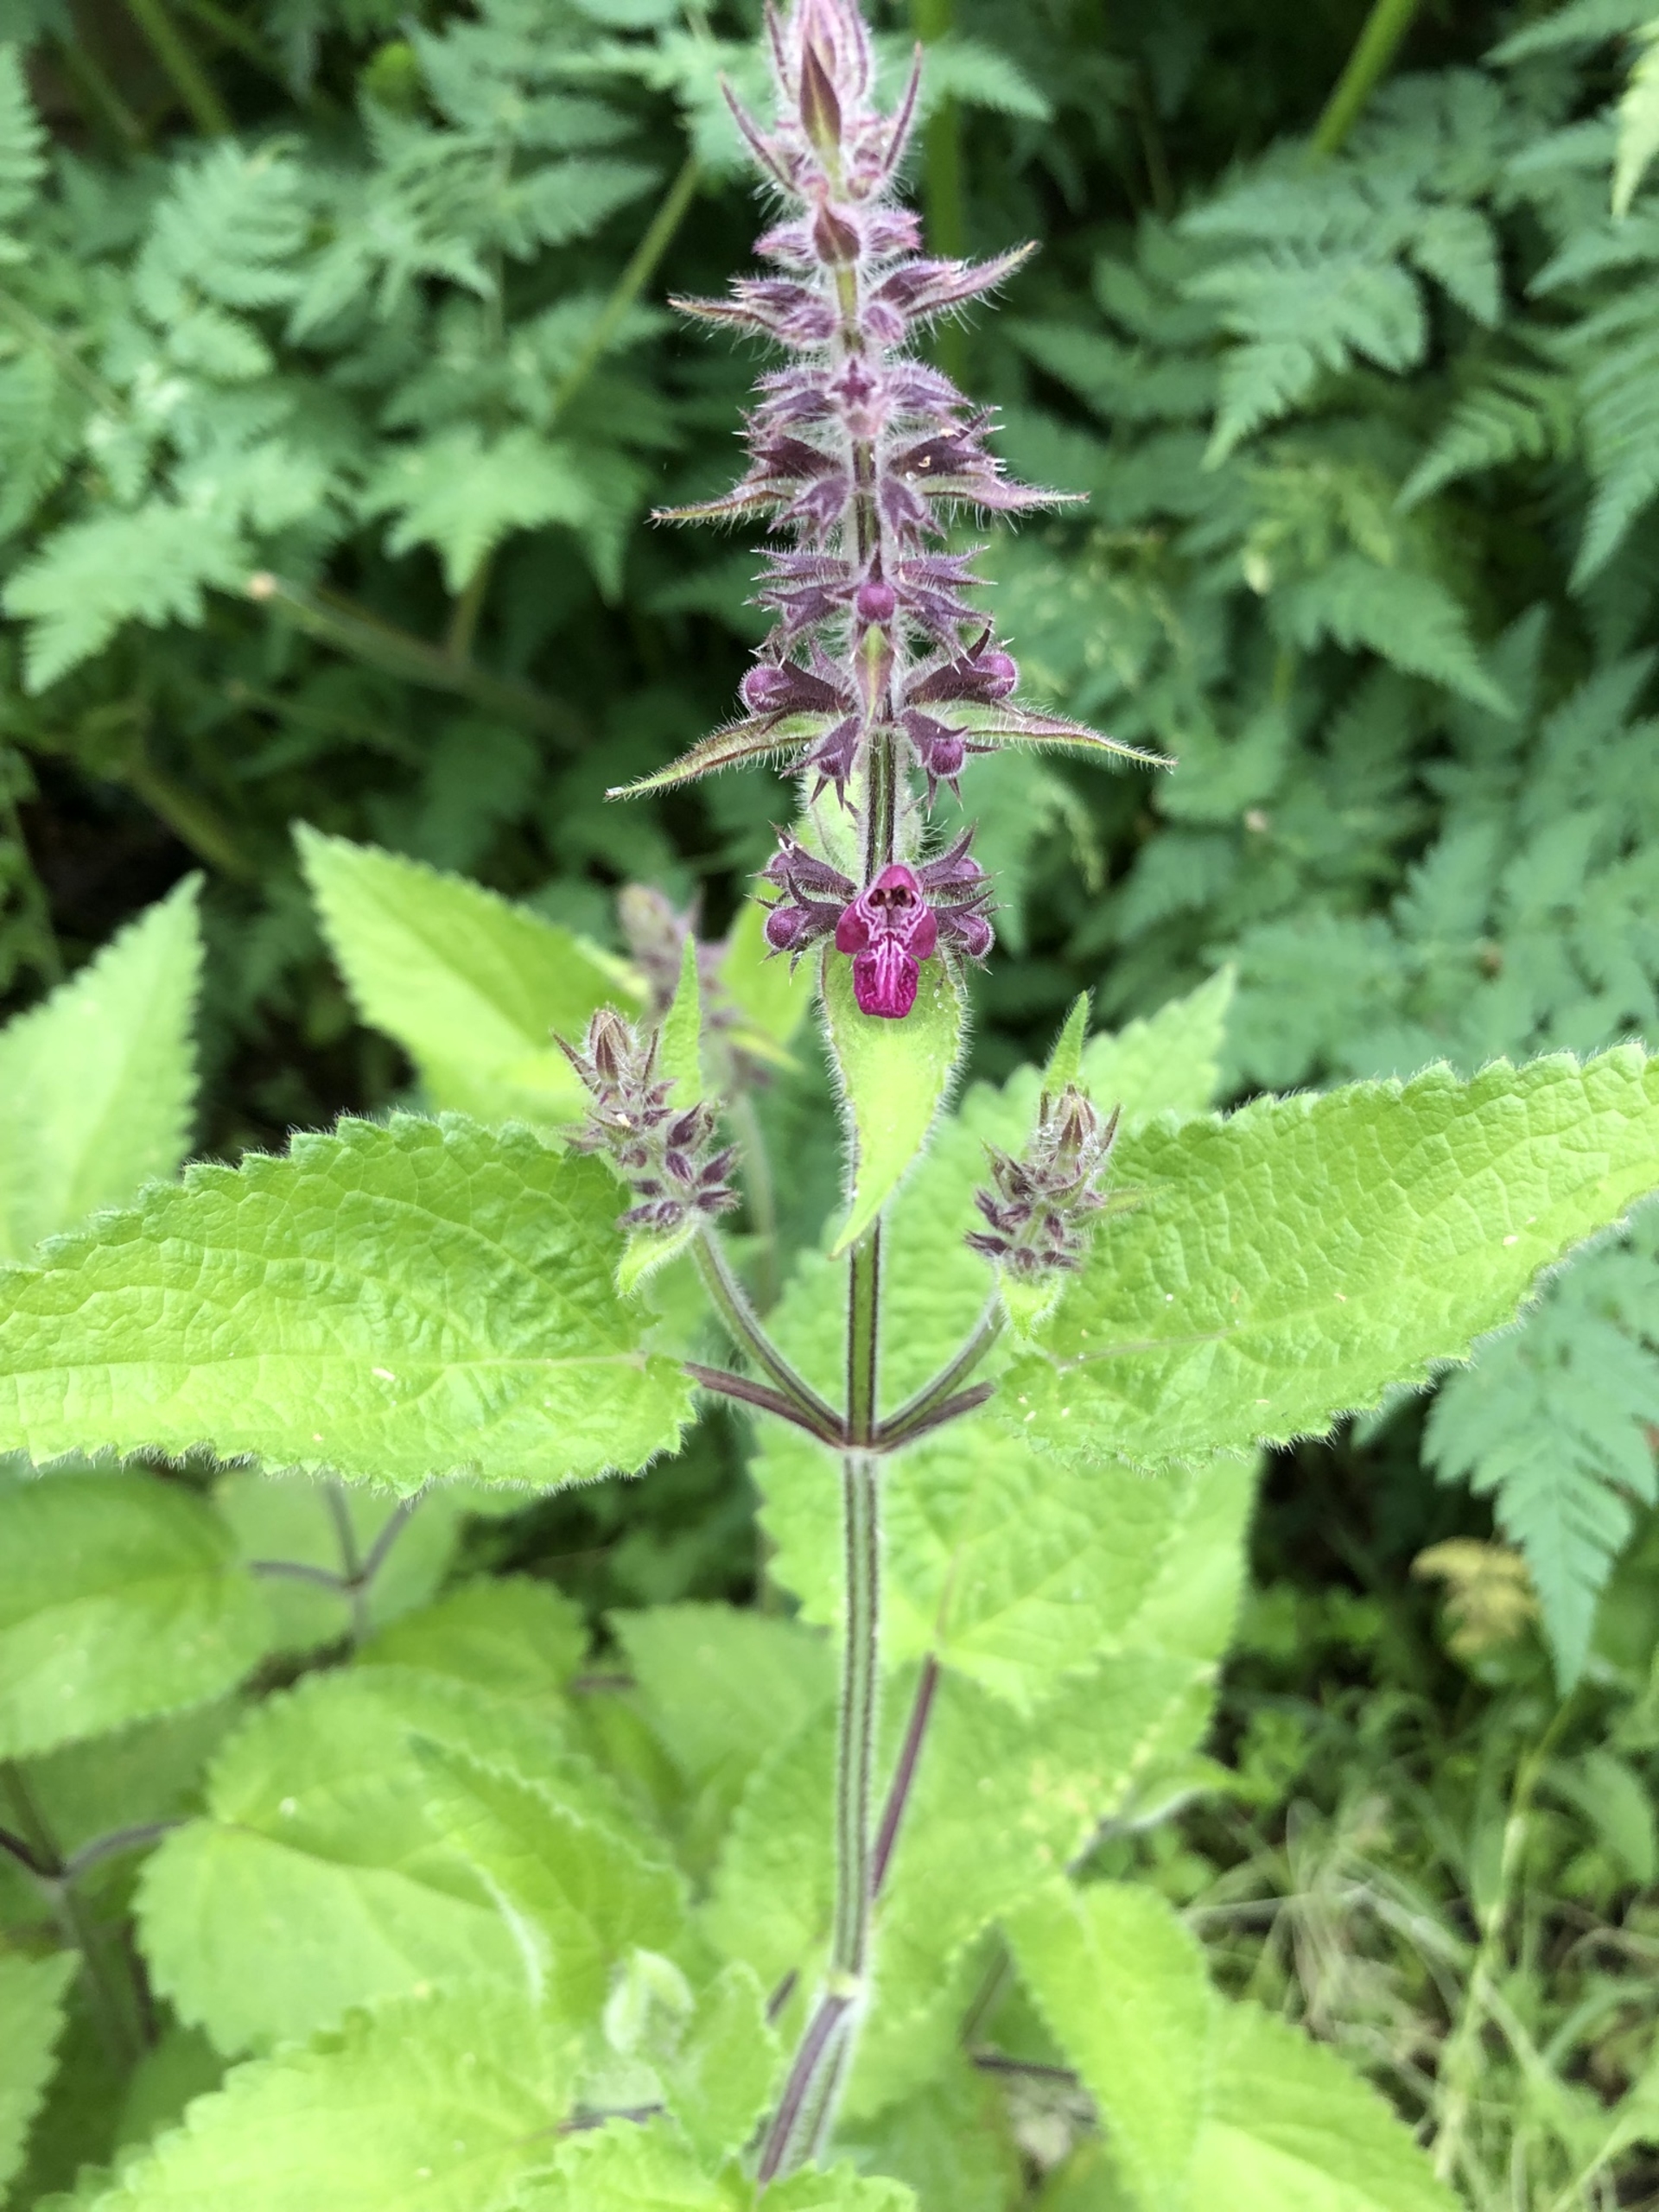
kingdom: Plantae
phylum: Tracheophyta
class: Magnoliopsida
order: Lamiales
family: Lamiaceae
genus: Stachys
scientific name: Stachys sylvatica
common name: Skov-galtetand
